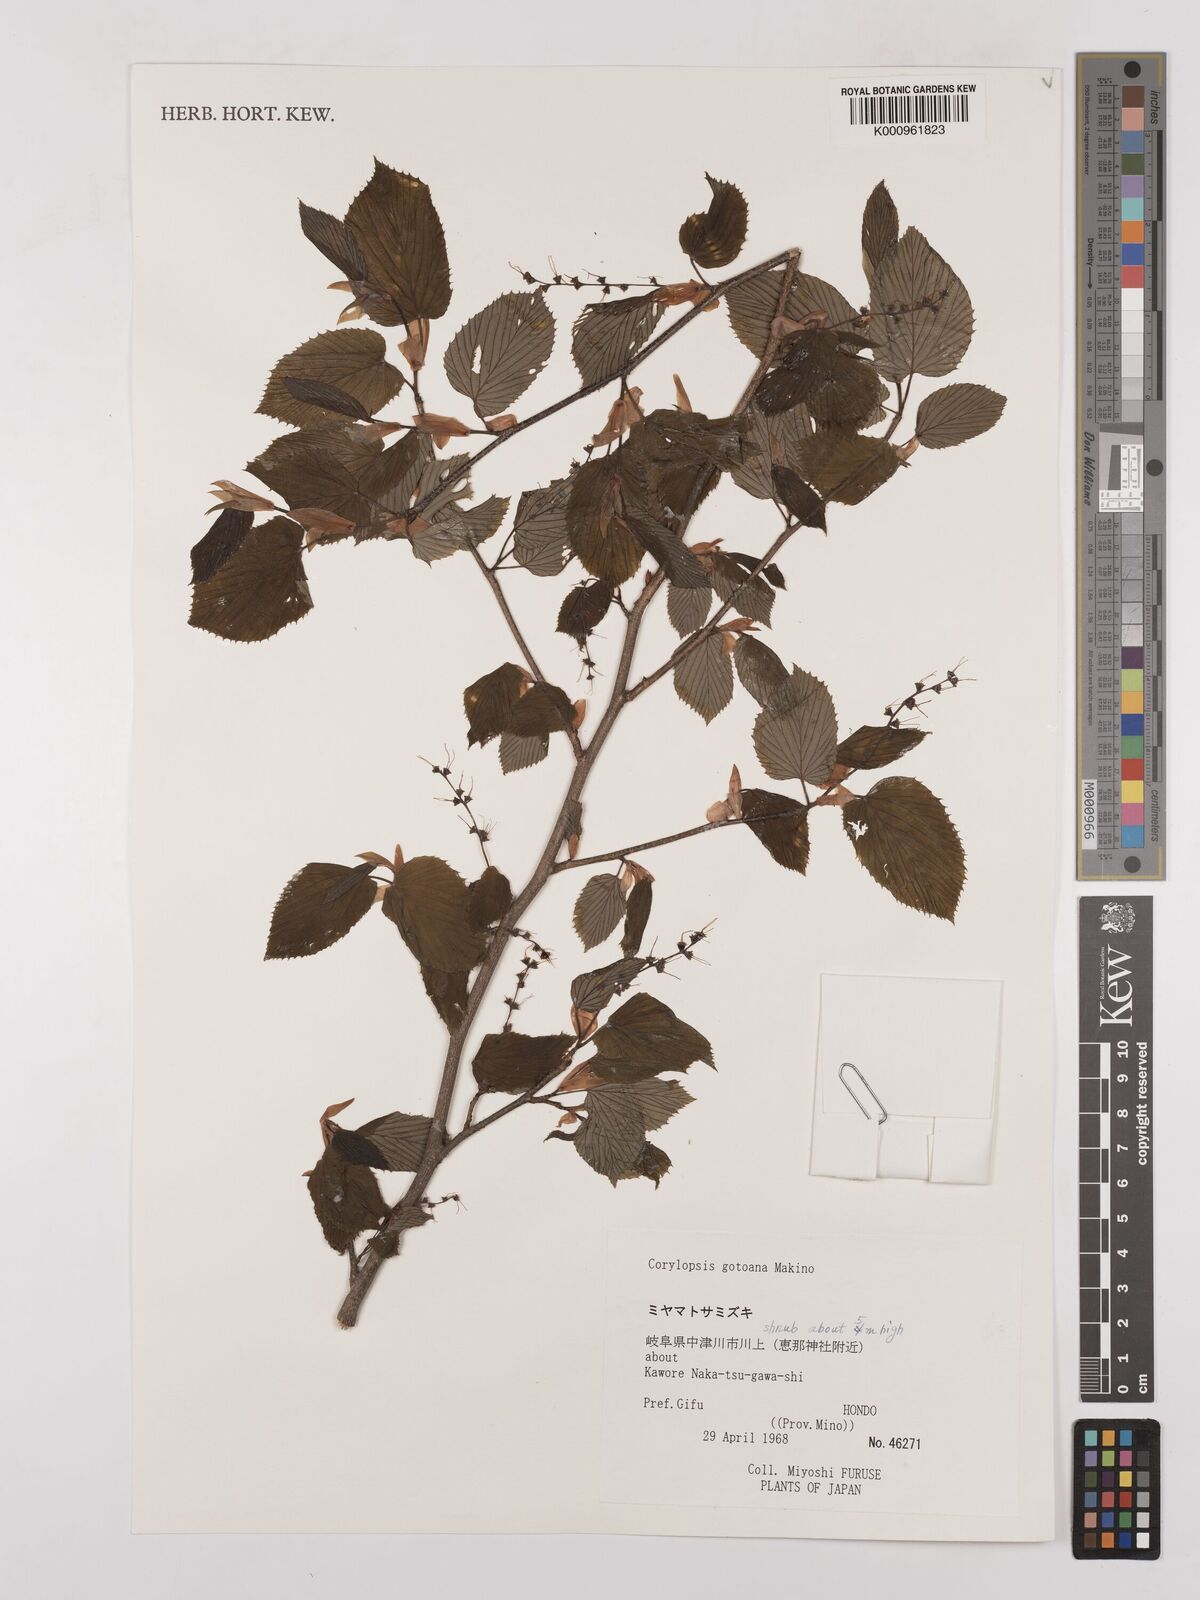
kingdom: Plantae
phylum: Tracheophyta
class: Magnoliopsida
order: Saxifragales
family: Hamamelidaceae
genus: Corylopsis
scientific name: Corylopsis glabrescens
